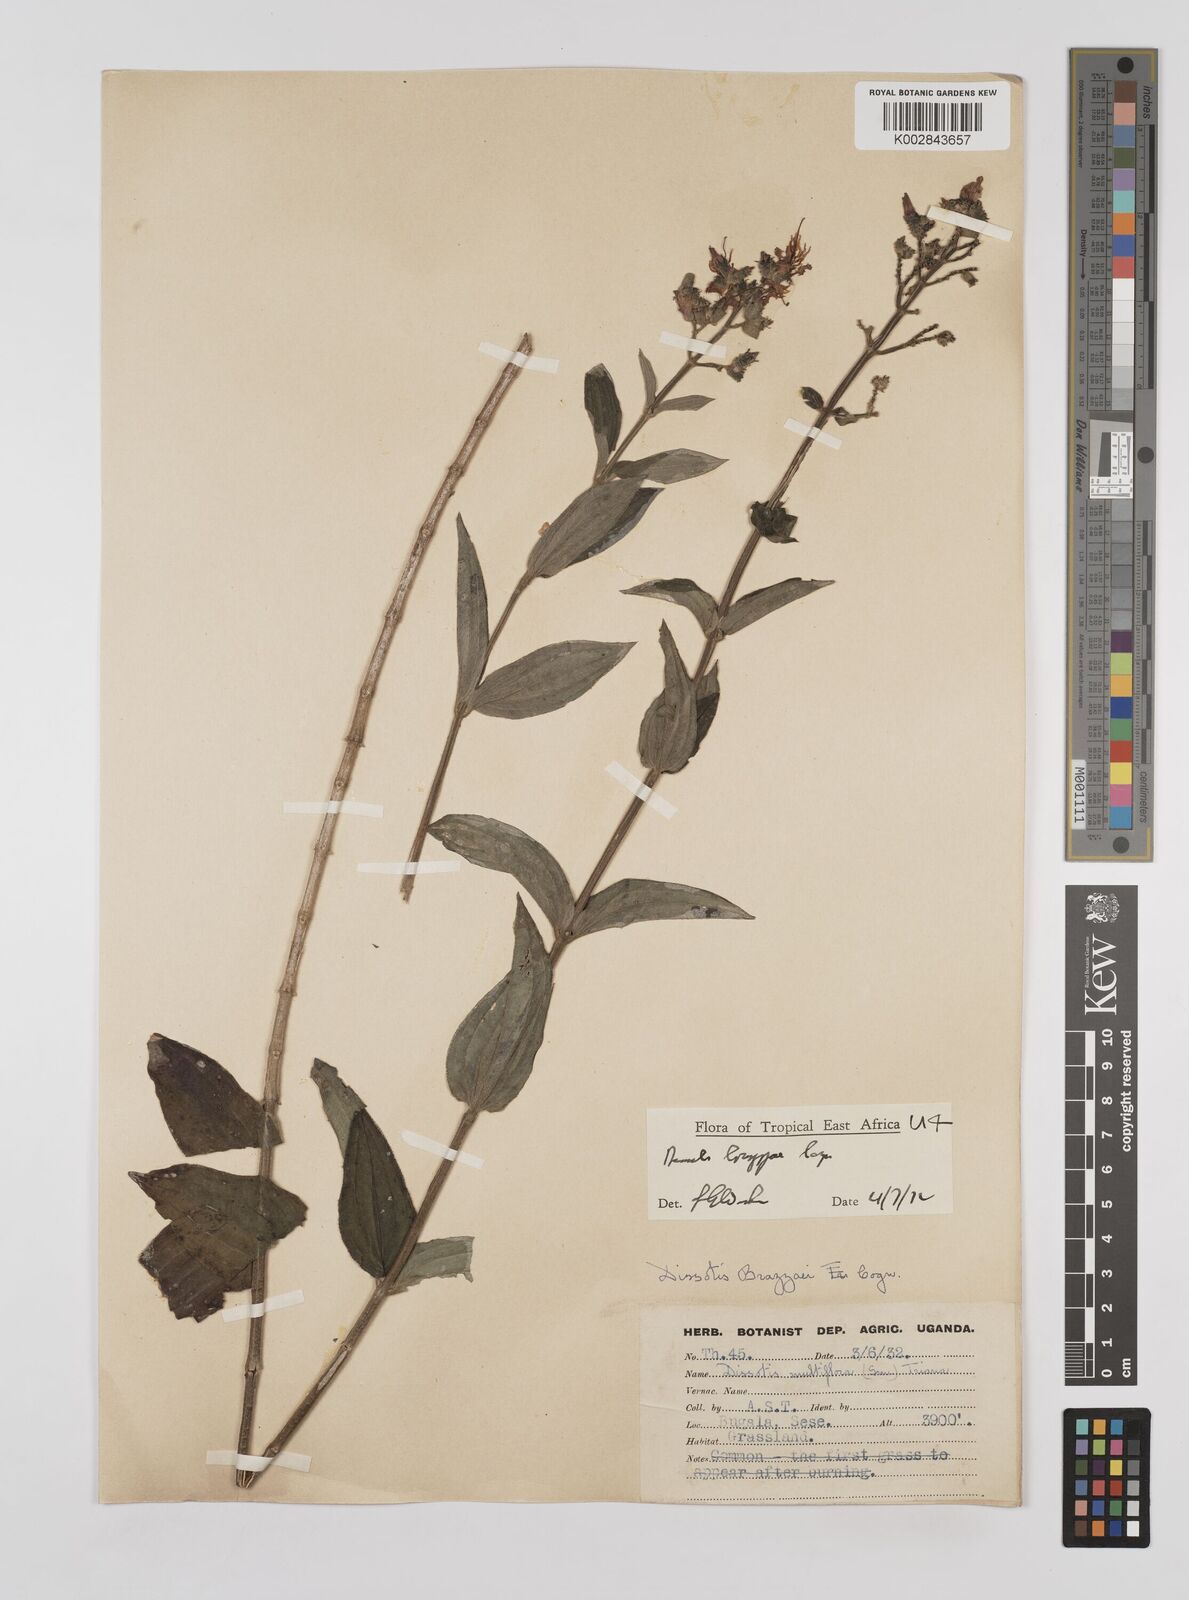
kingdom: Plantae
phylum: Tracheophyta
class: Magnoliopsida
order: Myrtales
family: Melastomataceae
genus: Dupineta
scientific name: Dupineta brazzae
